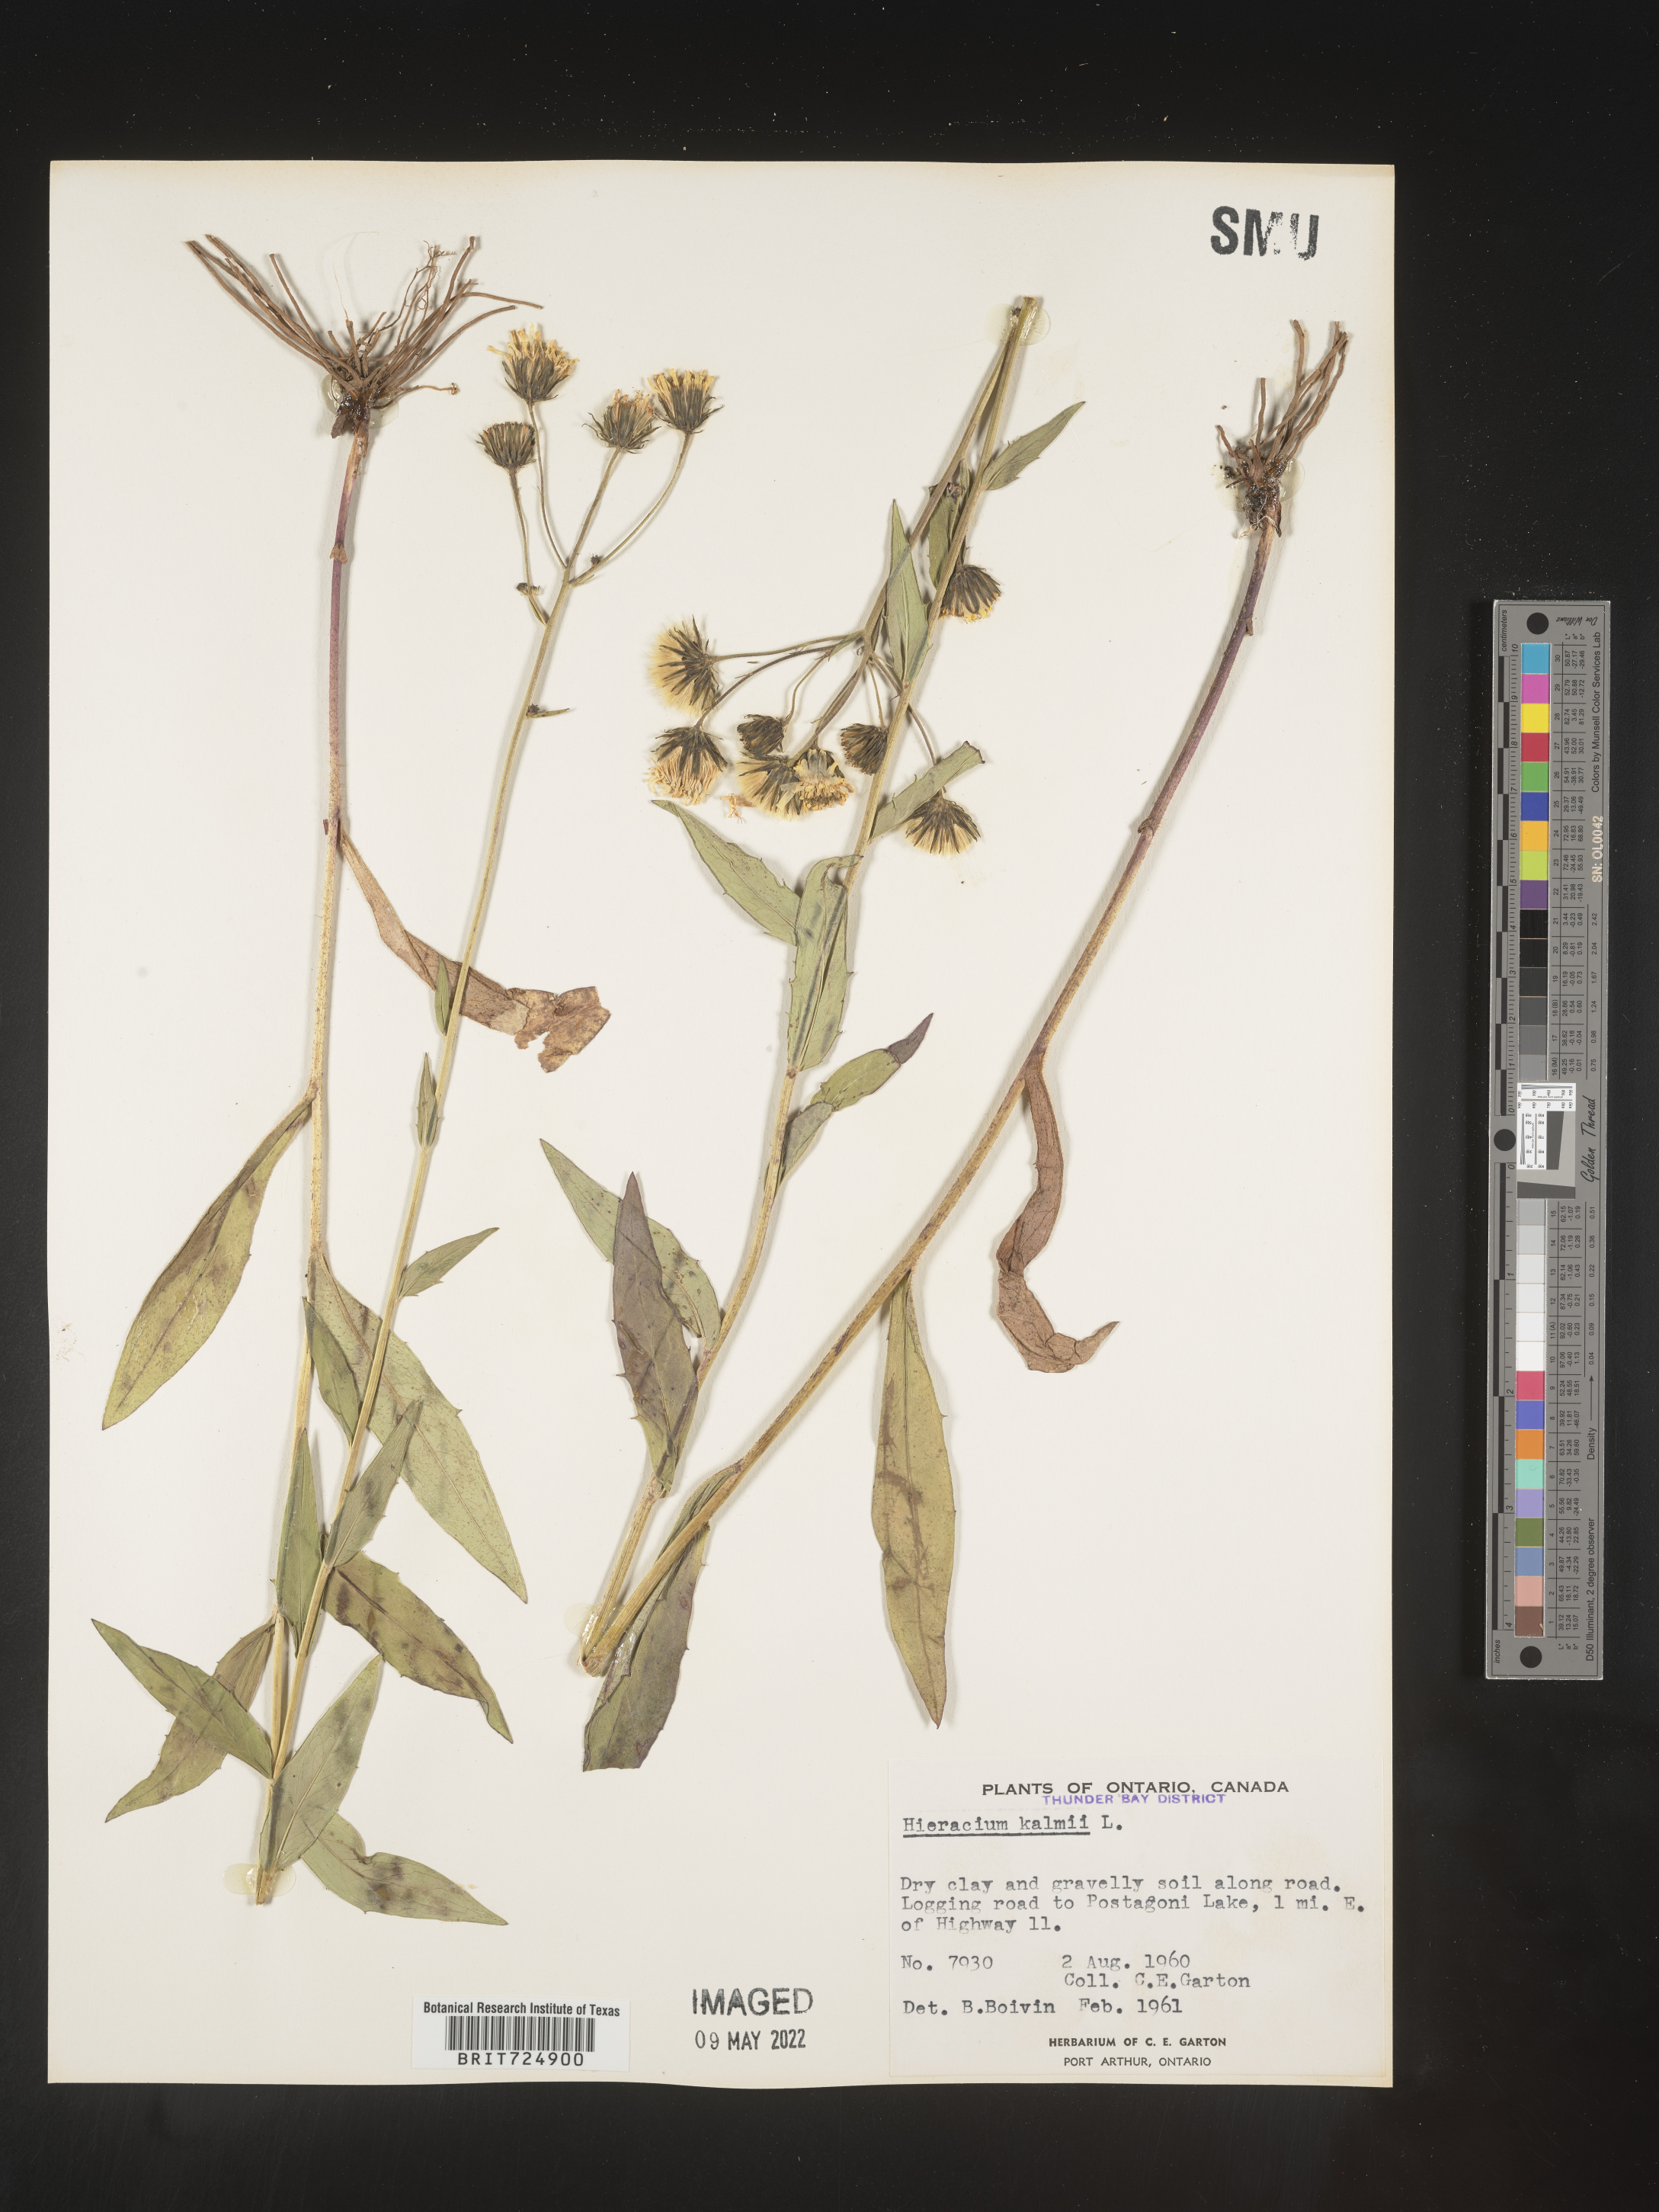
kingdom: Plantae
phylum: Tracheophyta
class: Magnoliopsida
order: Asterales
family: Asteraceae
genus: Hieracium
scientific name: Hieracium
